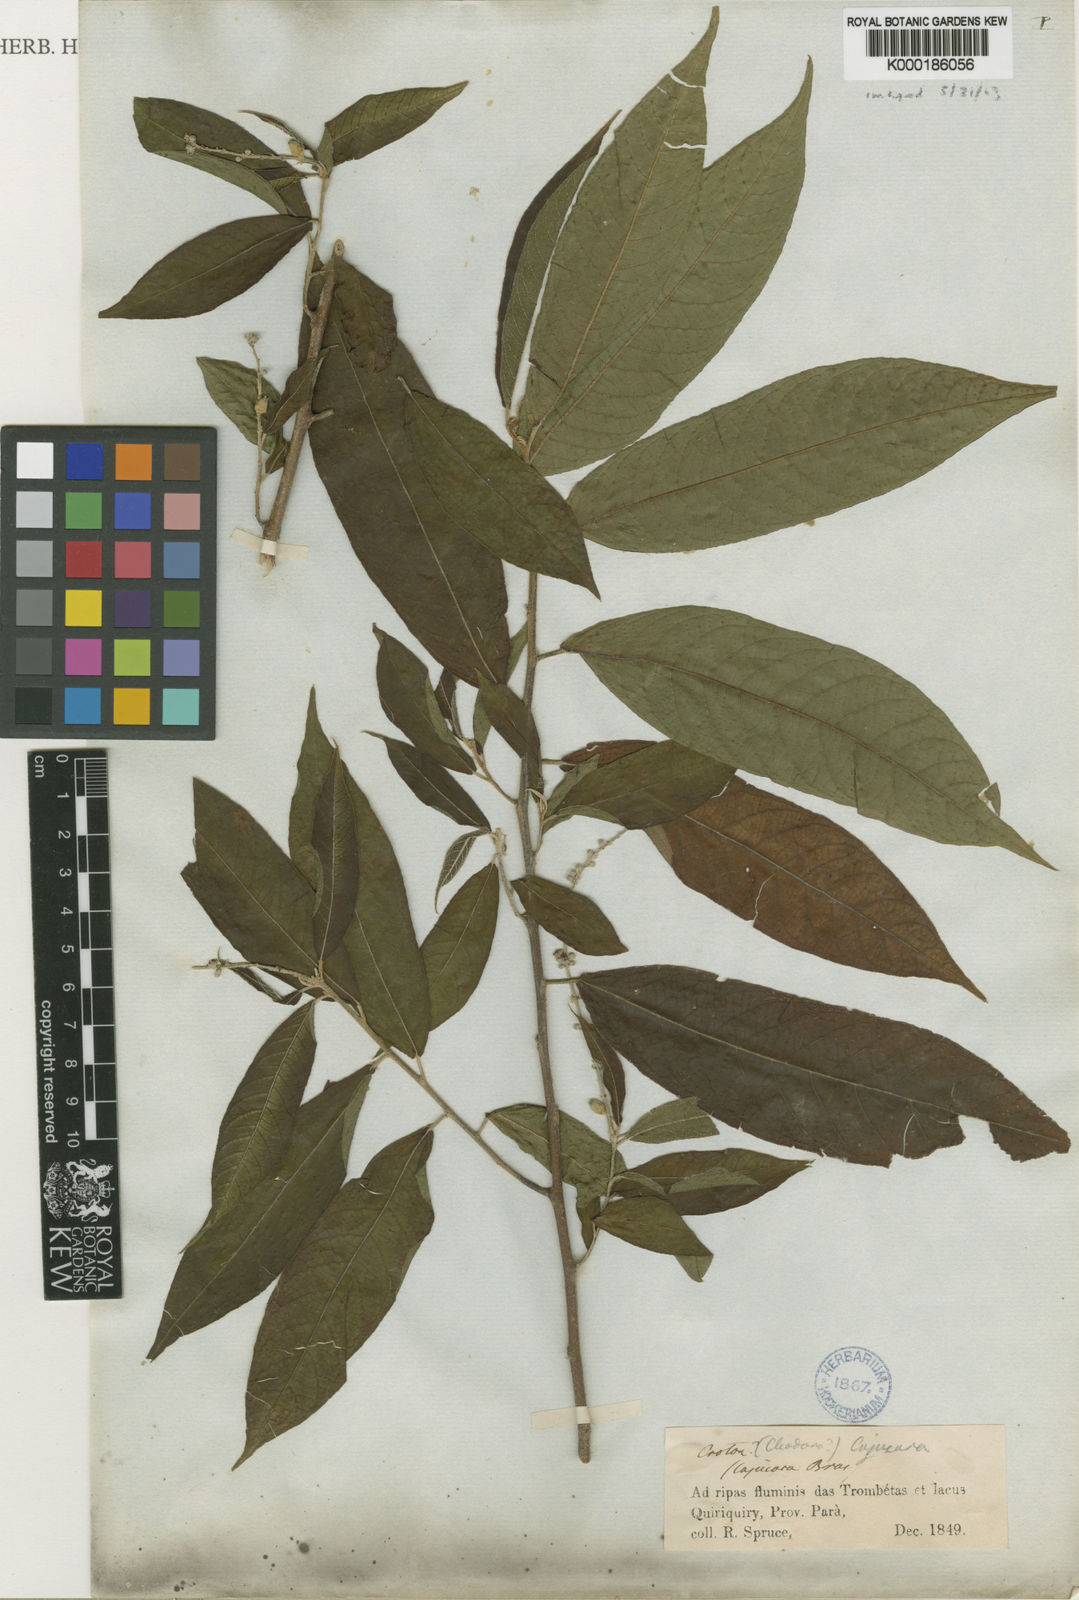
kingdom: Plantae
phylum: Tracheophyta
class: Magnoliopsida
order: Malpighiales
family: Euphorbiaceae
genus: Croton
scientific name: Croton cajucara
